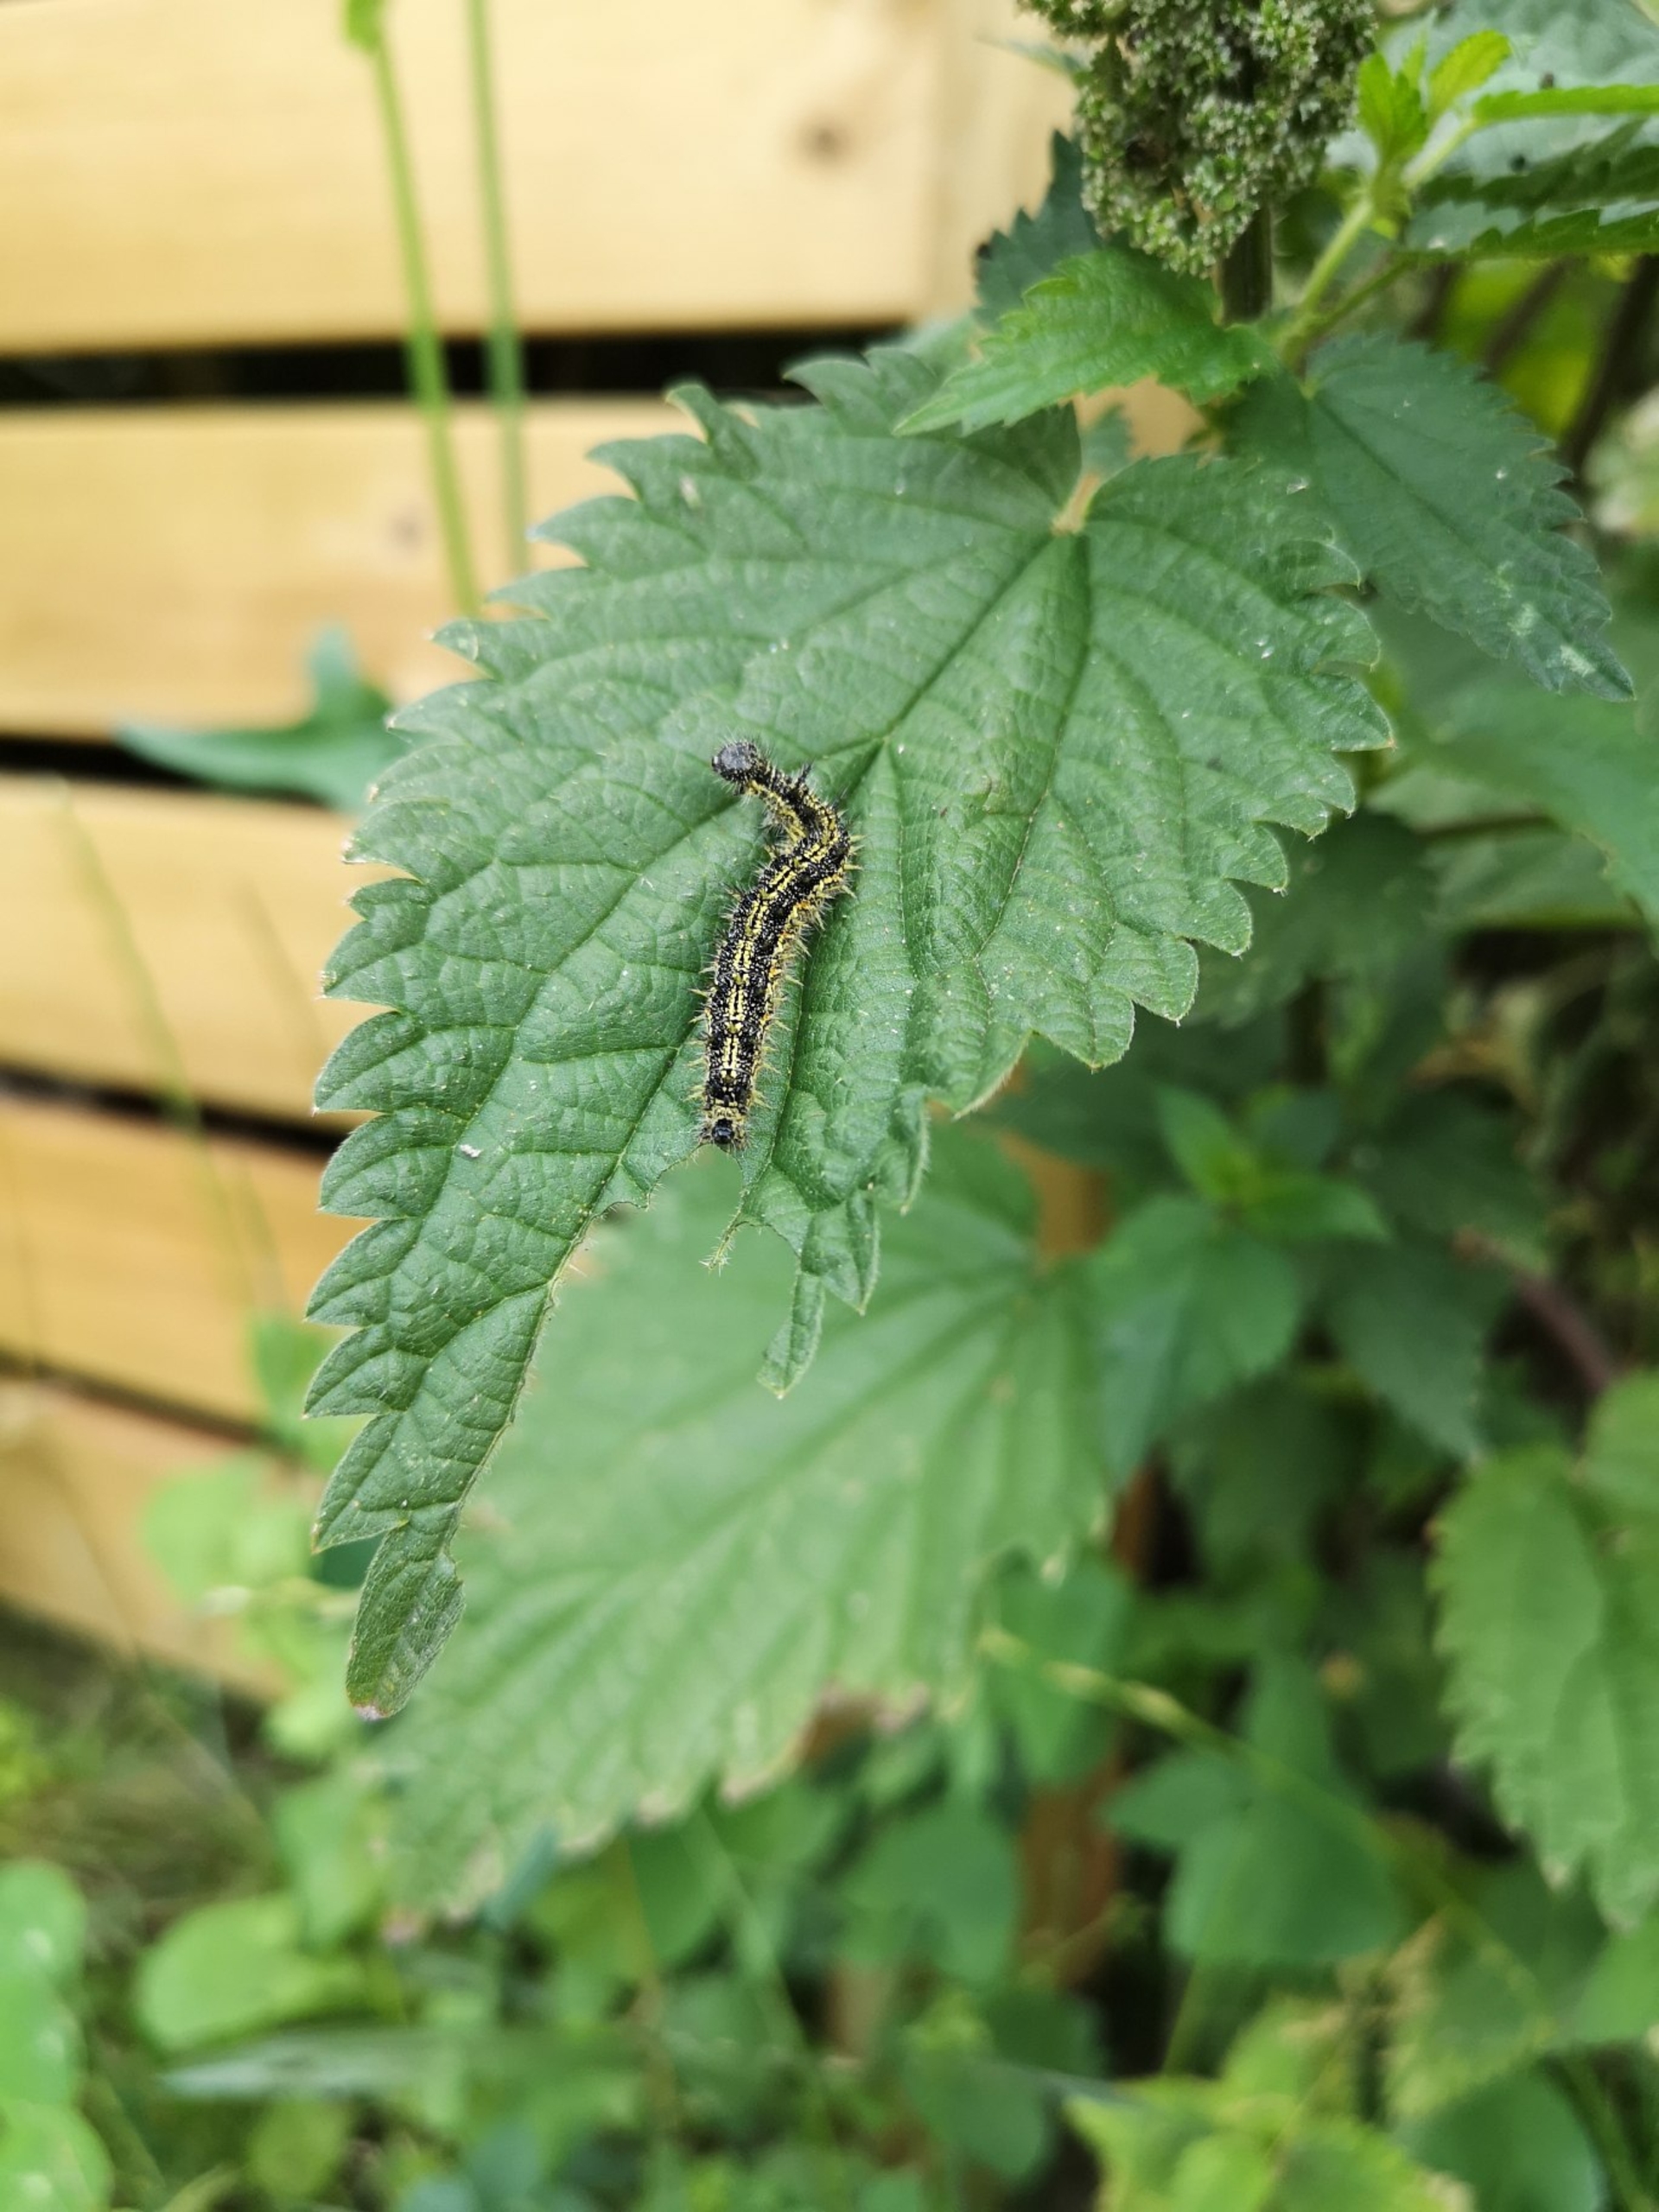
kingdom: Animalia
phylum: Arthropoda
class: Insecta
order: Lepidoptera
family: Nymphalidae
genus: Aglais
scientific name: Aglais urticae
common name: Nældens takvinge
